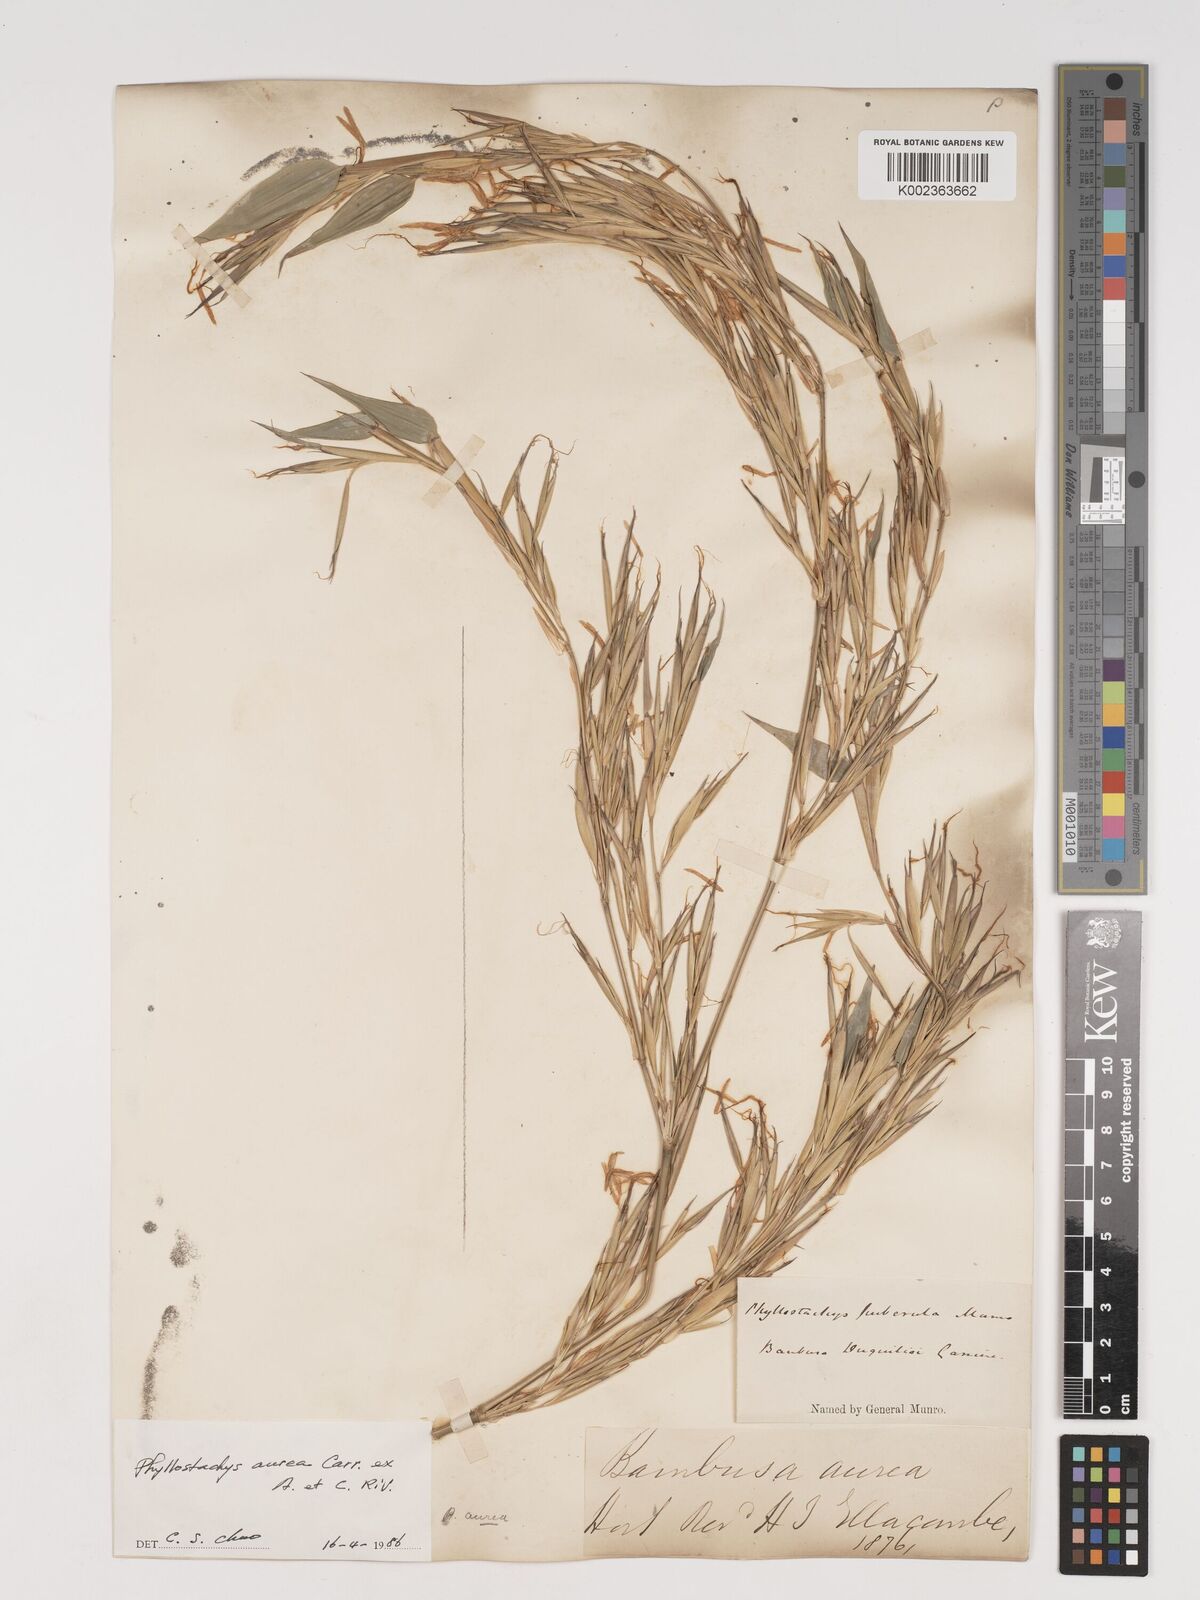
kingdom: Plantae
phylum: Tracheophyta
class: Liliopsida
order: Poales
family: Poaceae
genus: Phyllostachys
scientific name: Phyllostachys aurea
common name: Golden bamboo
